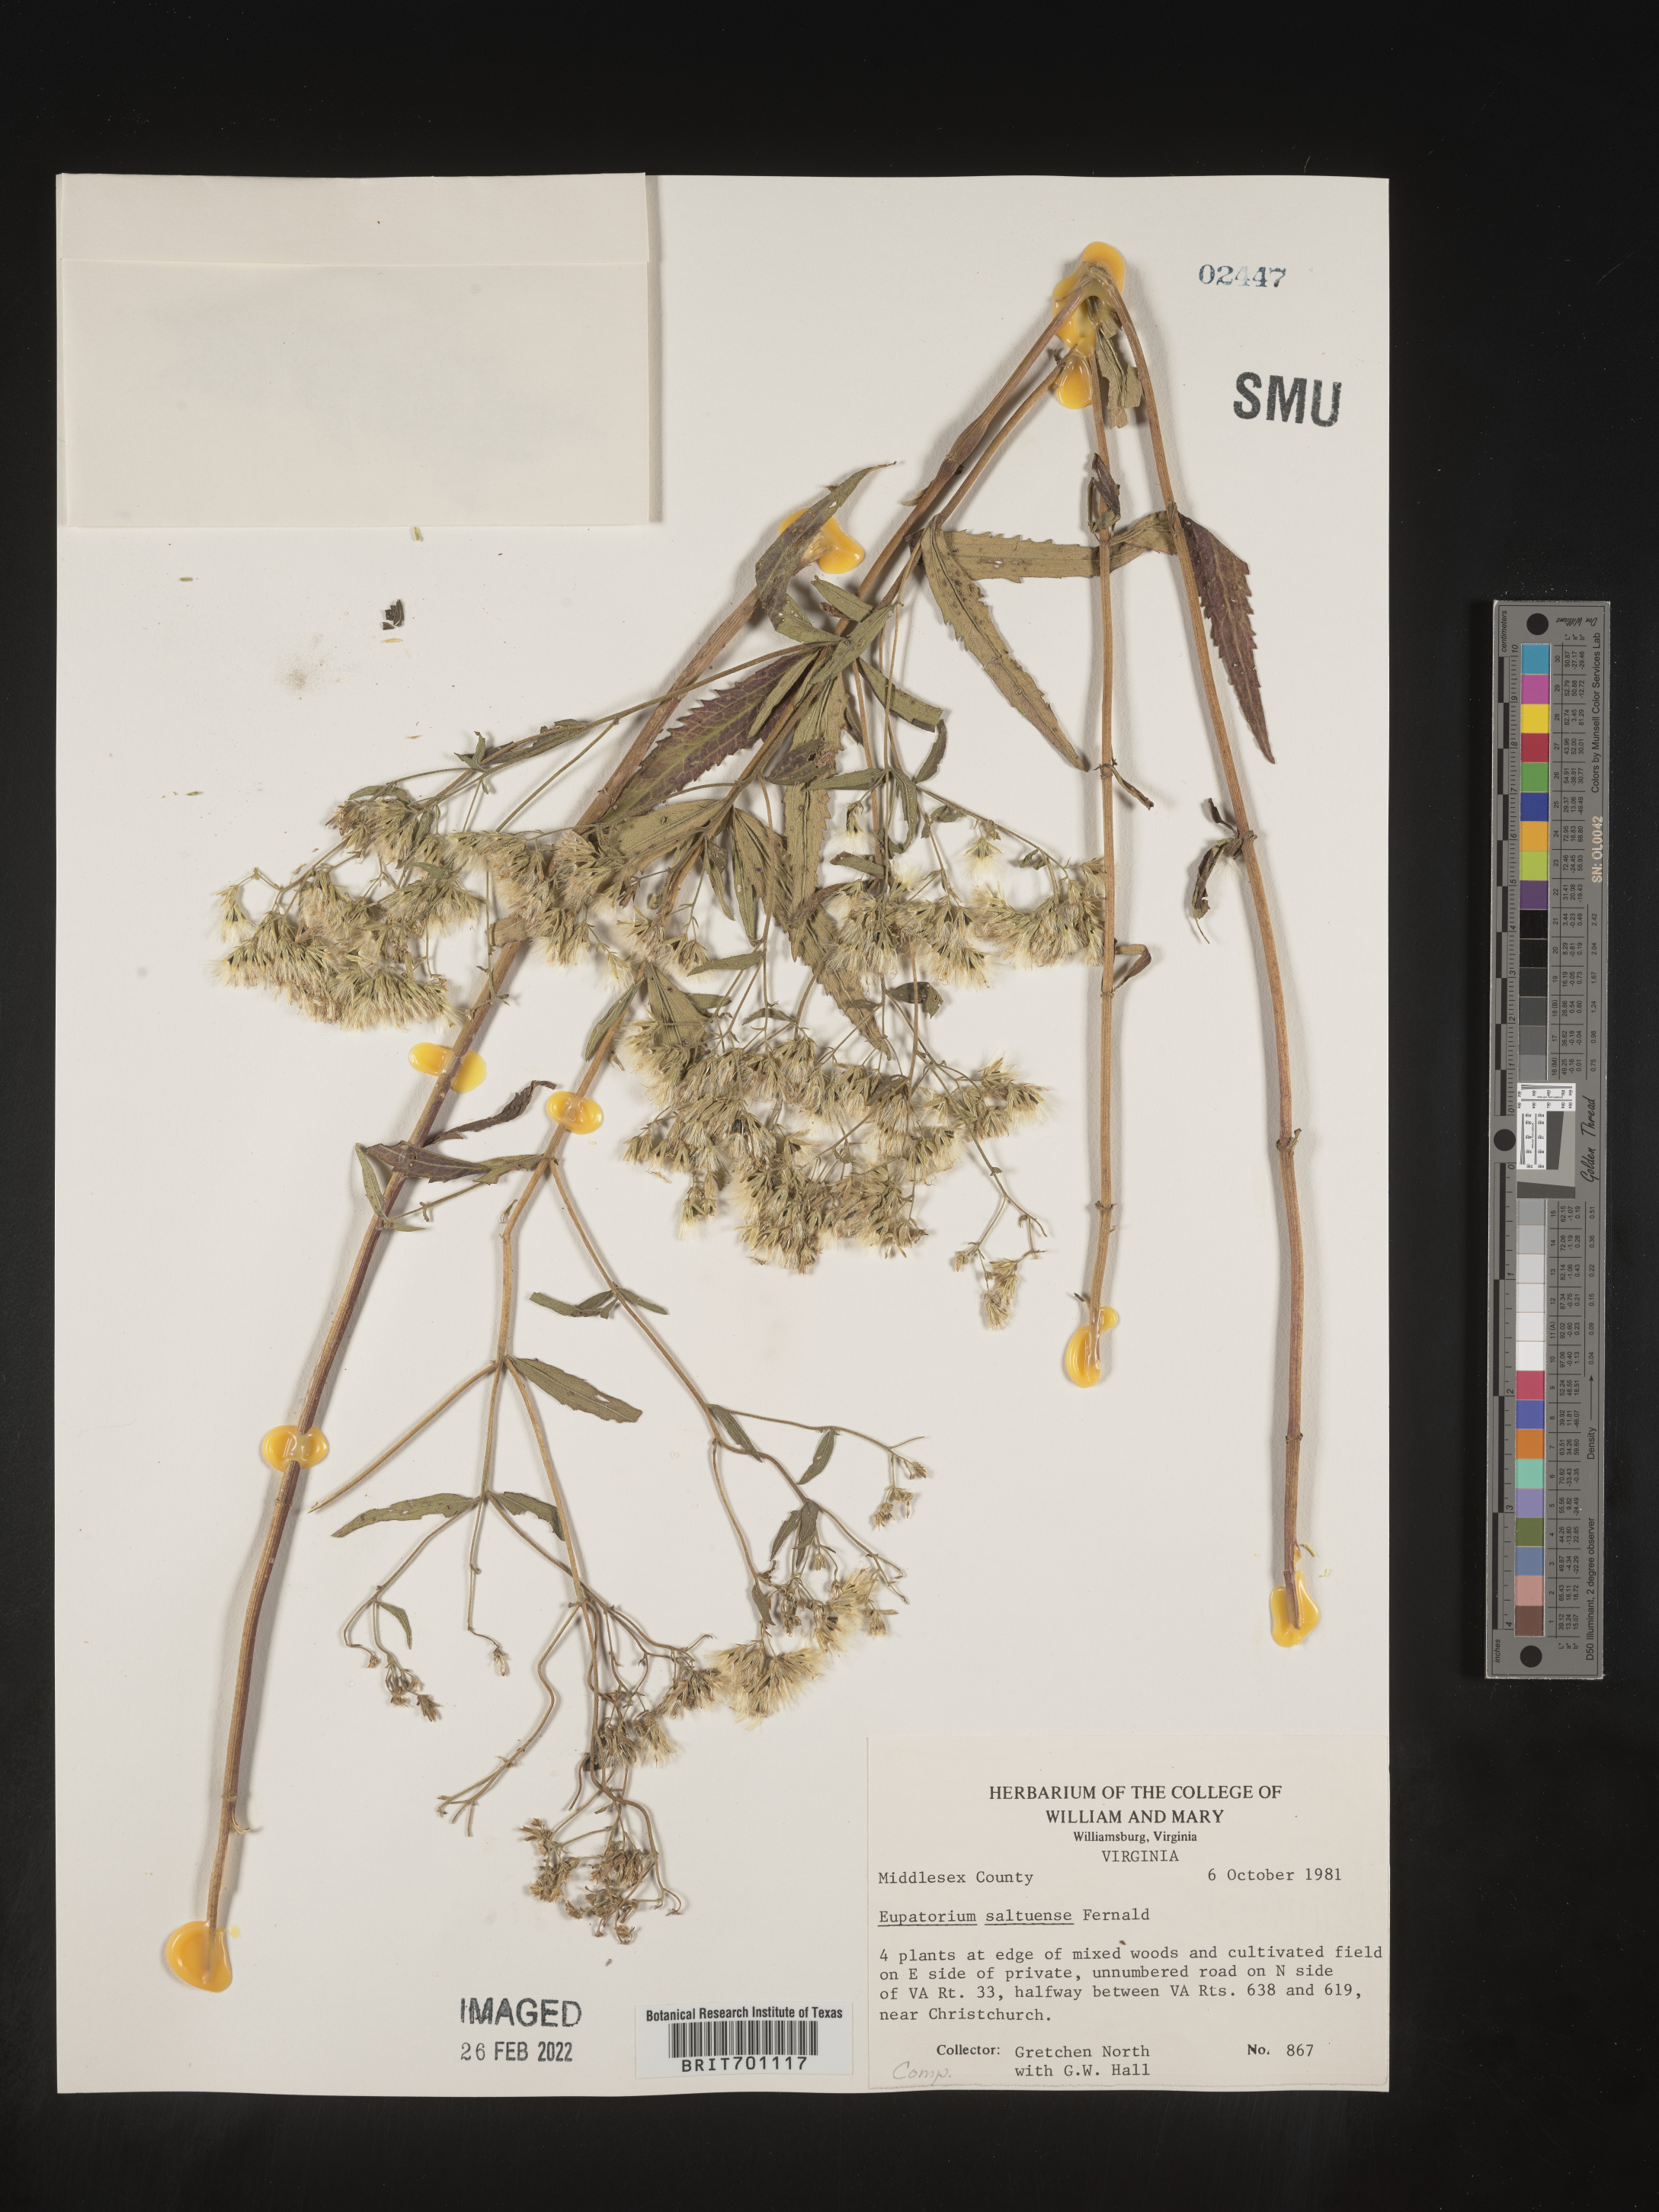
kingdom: Plantae
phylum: Tracheophyta
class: Magnoliopsida
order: Asterales
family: Asteraceae
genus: Eupatorium
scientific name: Eupatorium altissimum
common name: Tall thoroughwort
